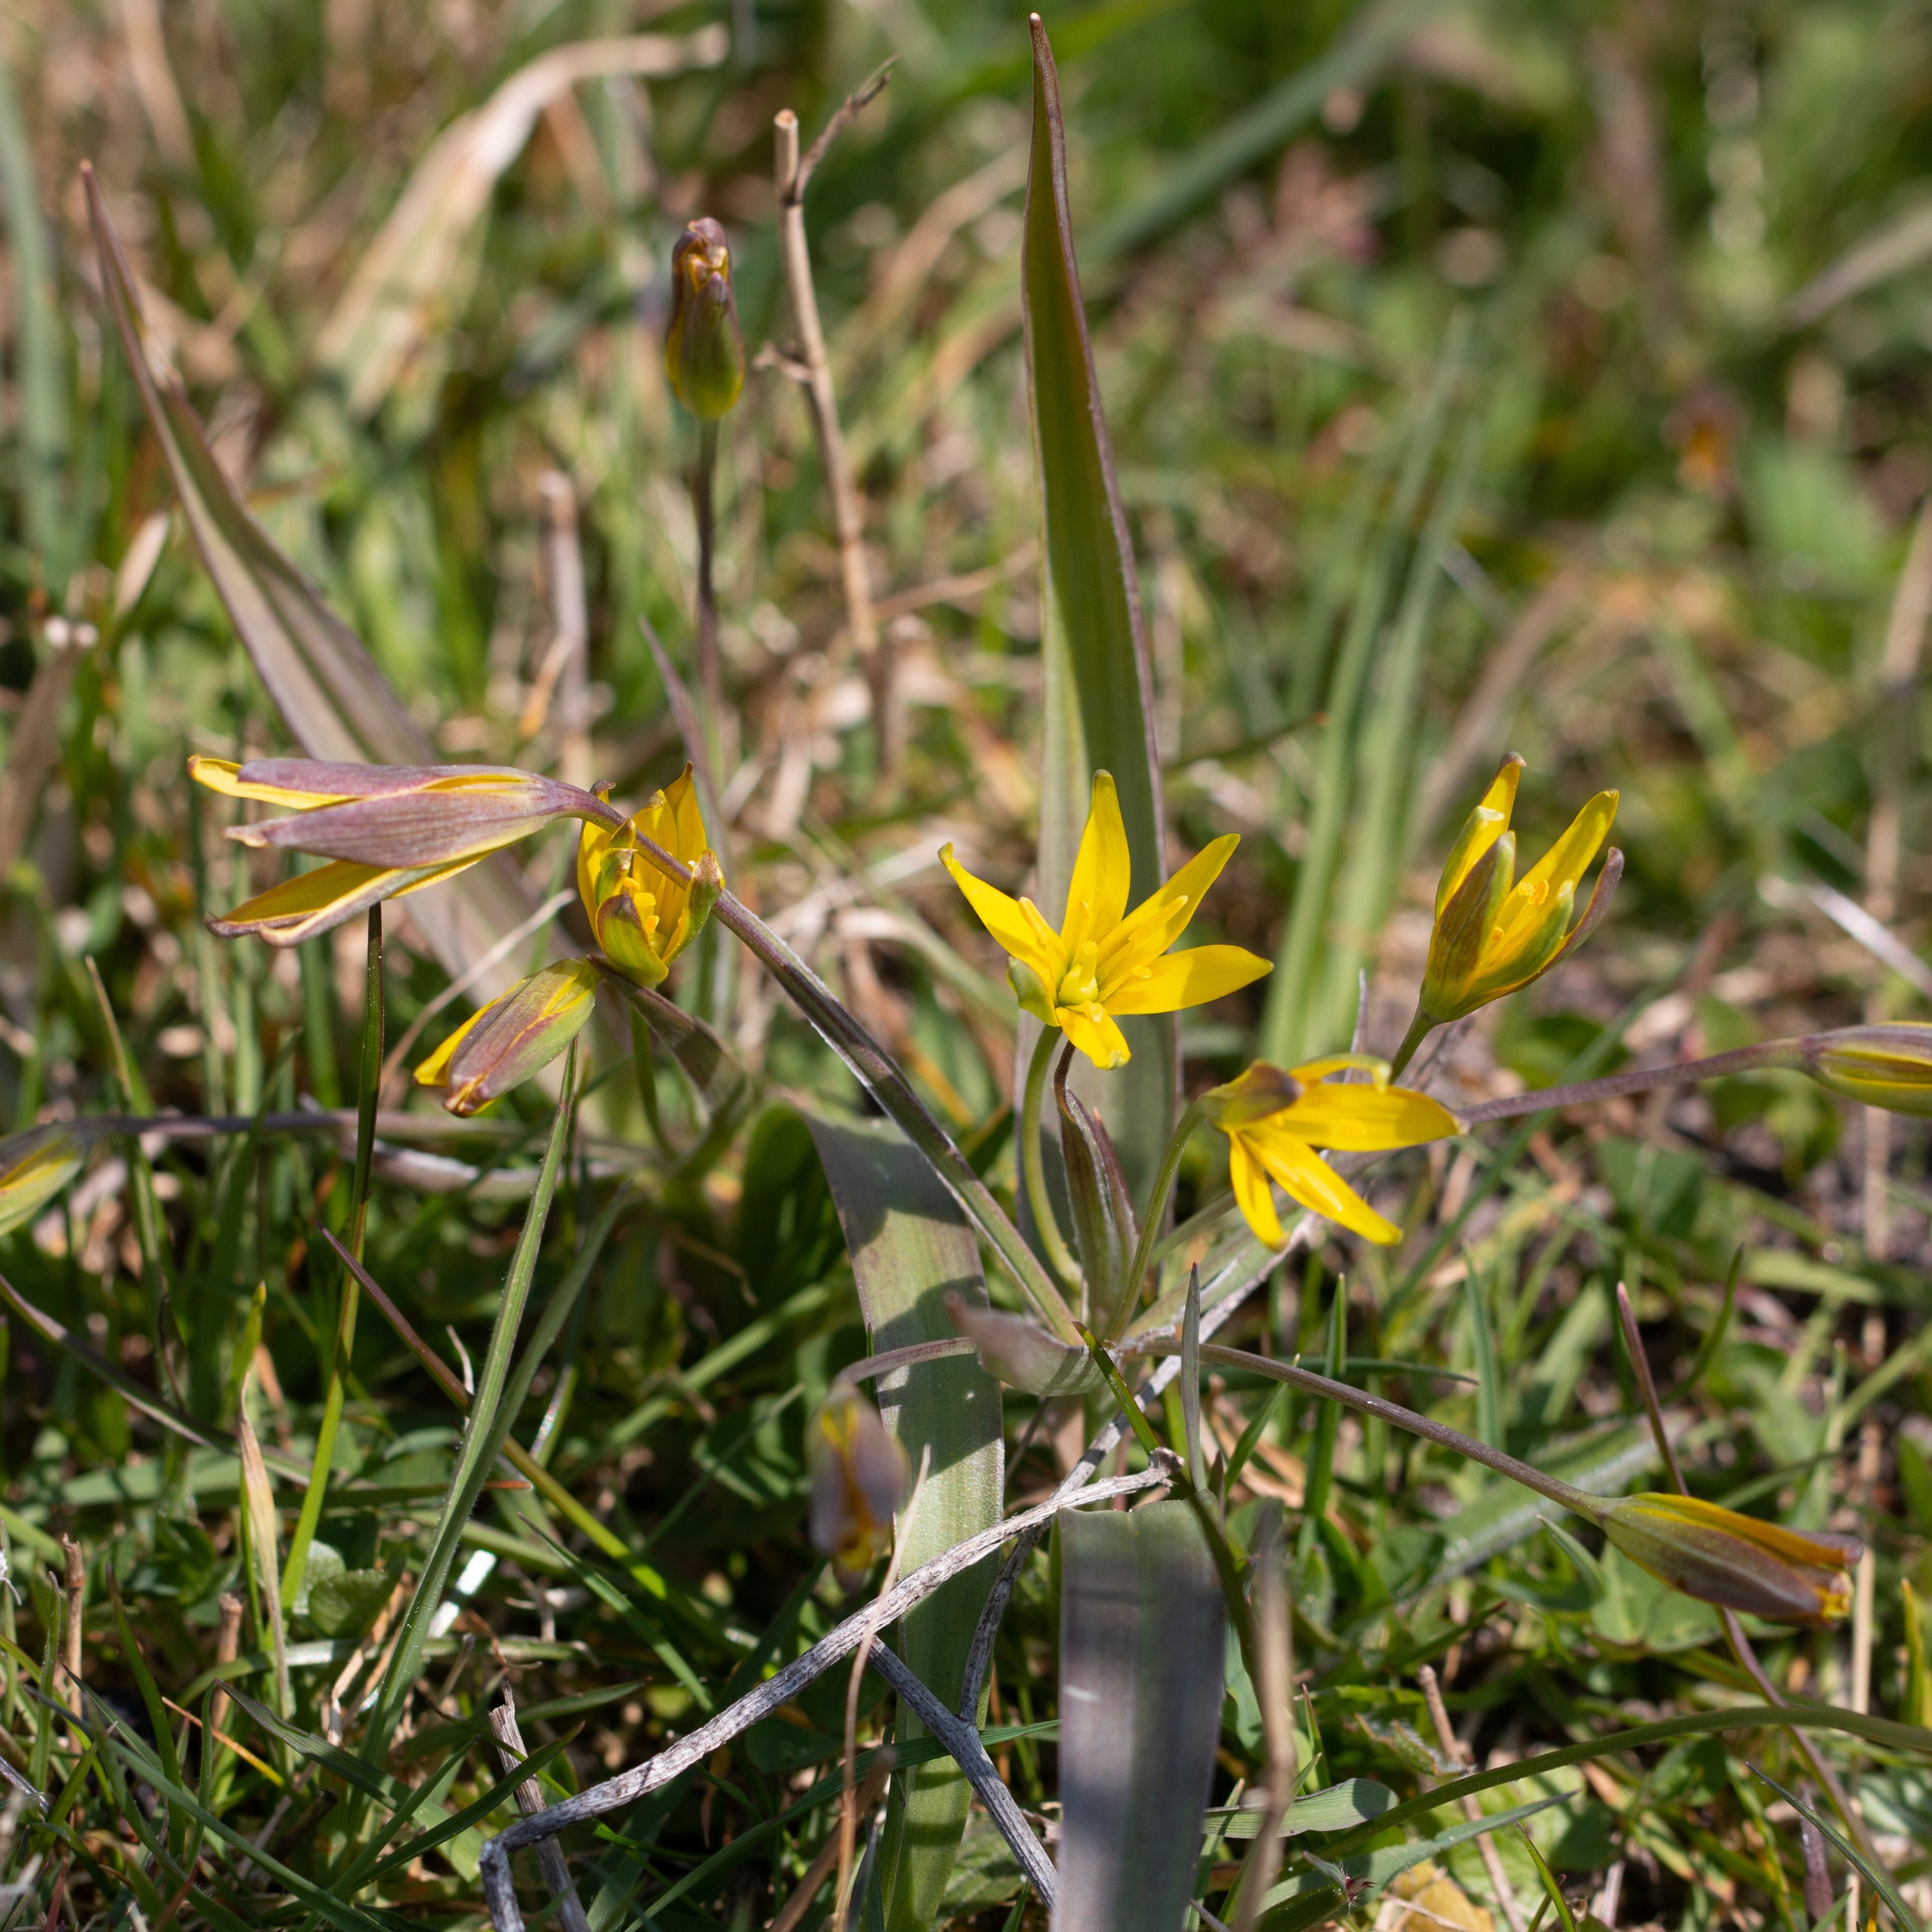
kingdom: Plantae
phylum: Tracheophyta
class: Liliopsida
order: Liliales
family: Liliaceae
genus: Gagea
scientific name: Gagea lutea
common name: Almindelig guldstjerne
